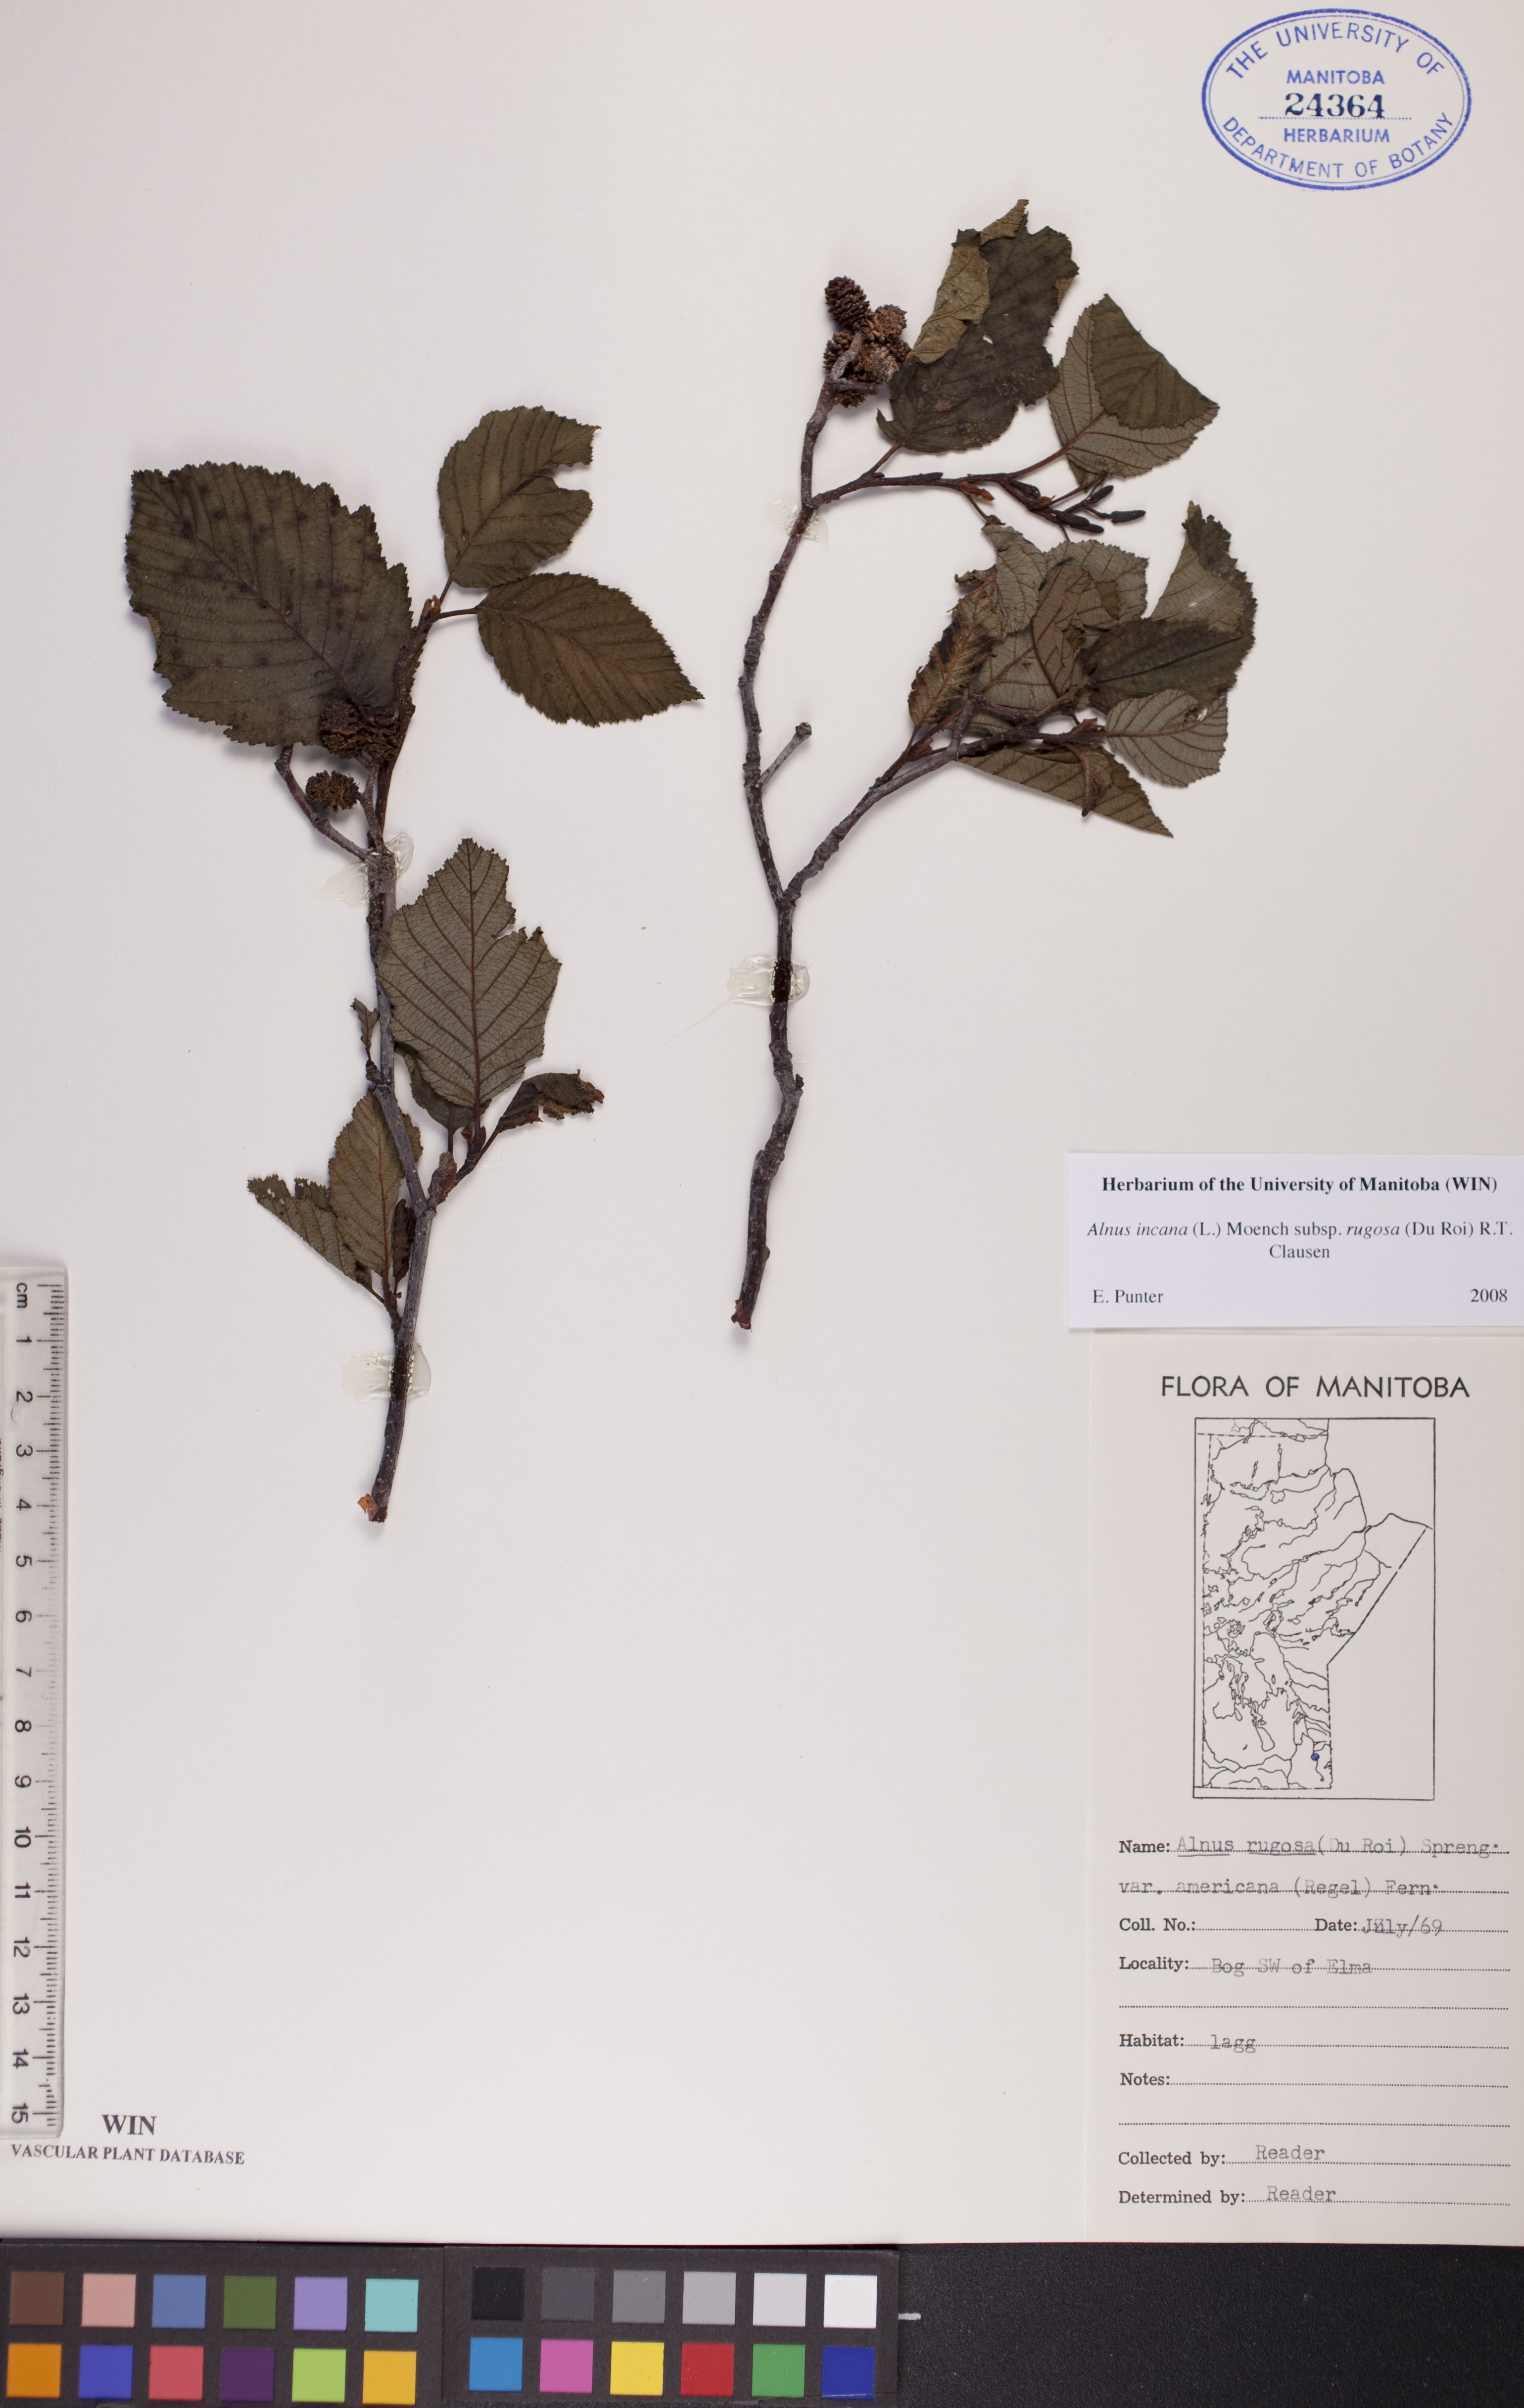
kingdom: Plantae
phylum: Tracheophyta
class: Magnoliopsida
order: Fagales
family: Betulaceae
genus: Alnus
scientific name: Alnus incana
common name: Grey alder
